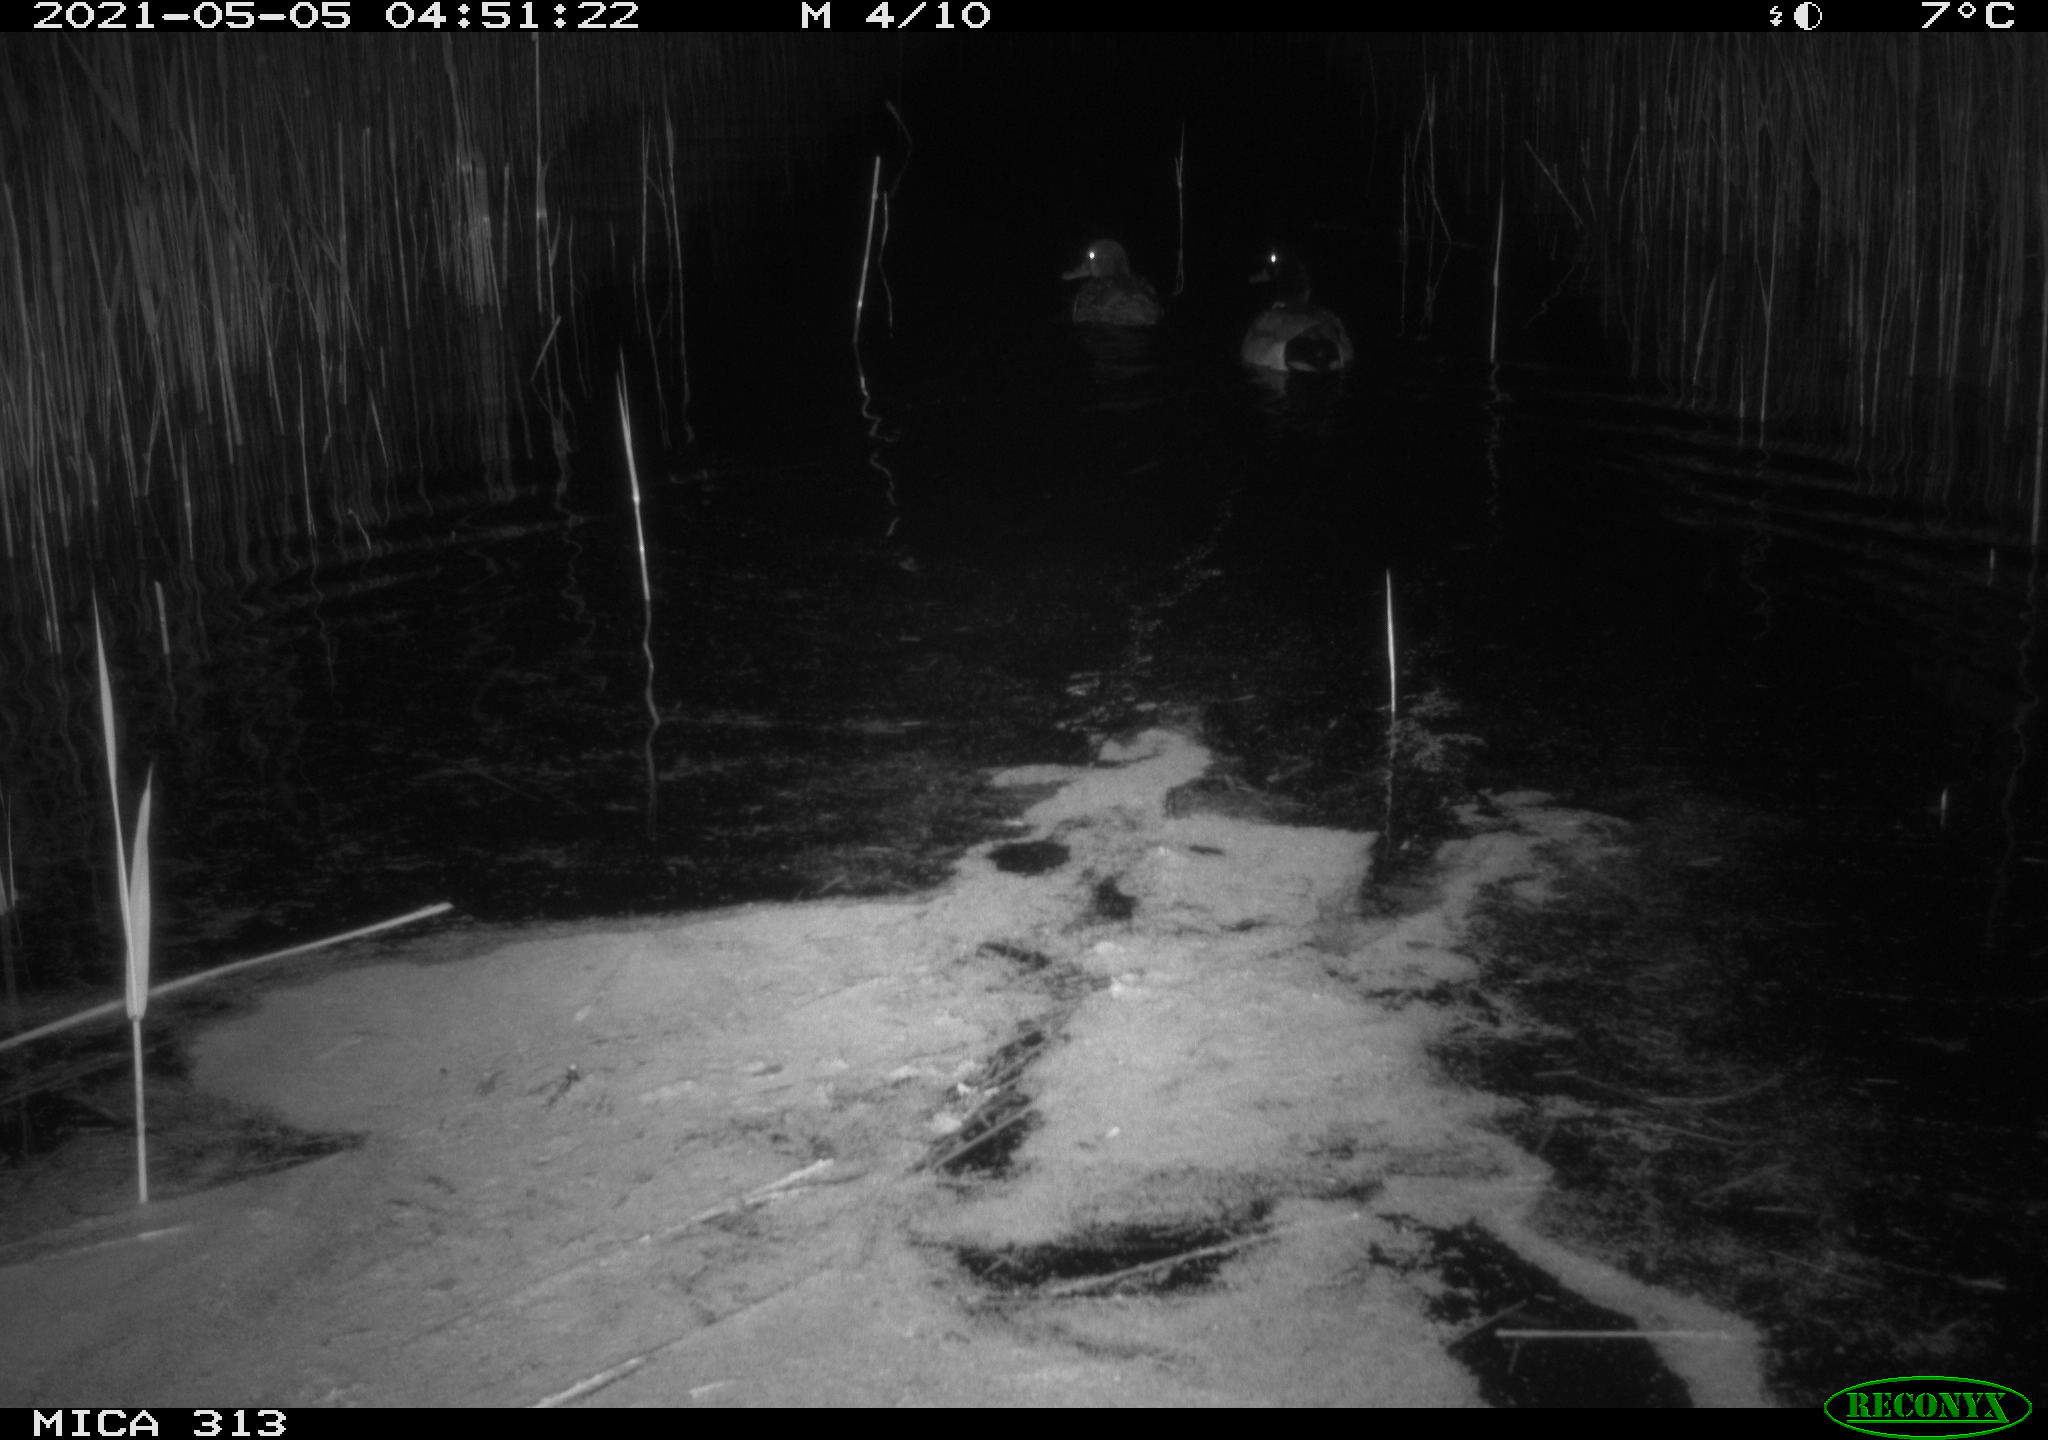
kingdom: Animalia
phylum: Chordata
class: Aves
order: Anseriformes
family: Anatidae
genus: Anas
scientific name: Anas platyrhynchos
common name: Mallard
